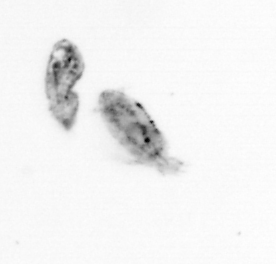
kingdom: Animalia
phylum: Arthropoda
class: Copepoda
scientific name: Copepoda
